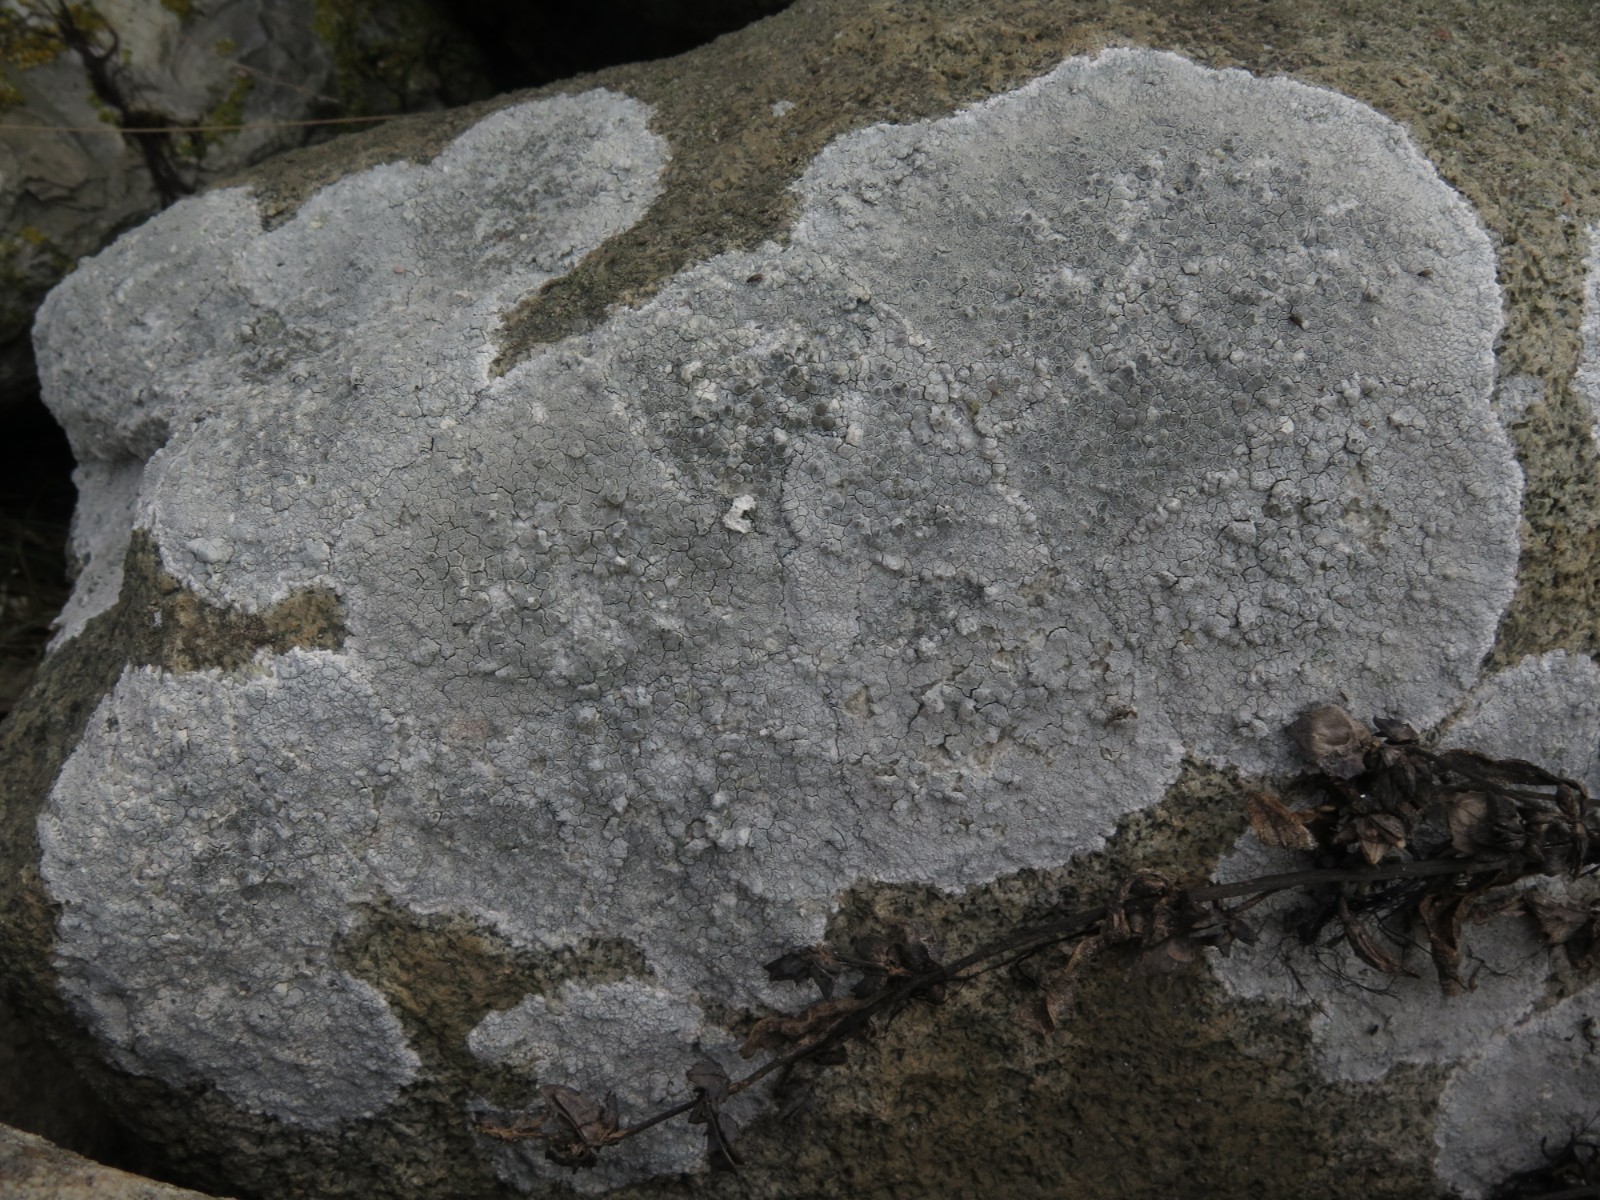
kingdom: Fungi
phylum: Ascomycota
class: Lecanoromycetes
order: Lecanorales
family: Lecanoraceae
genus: Glaucomaria
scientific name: Glaucomaria rupicola
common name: stengærde-kantskivelav
